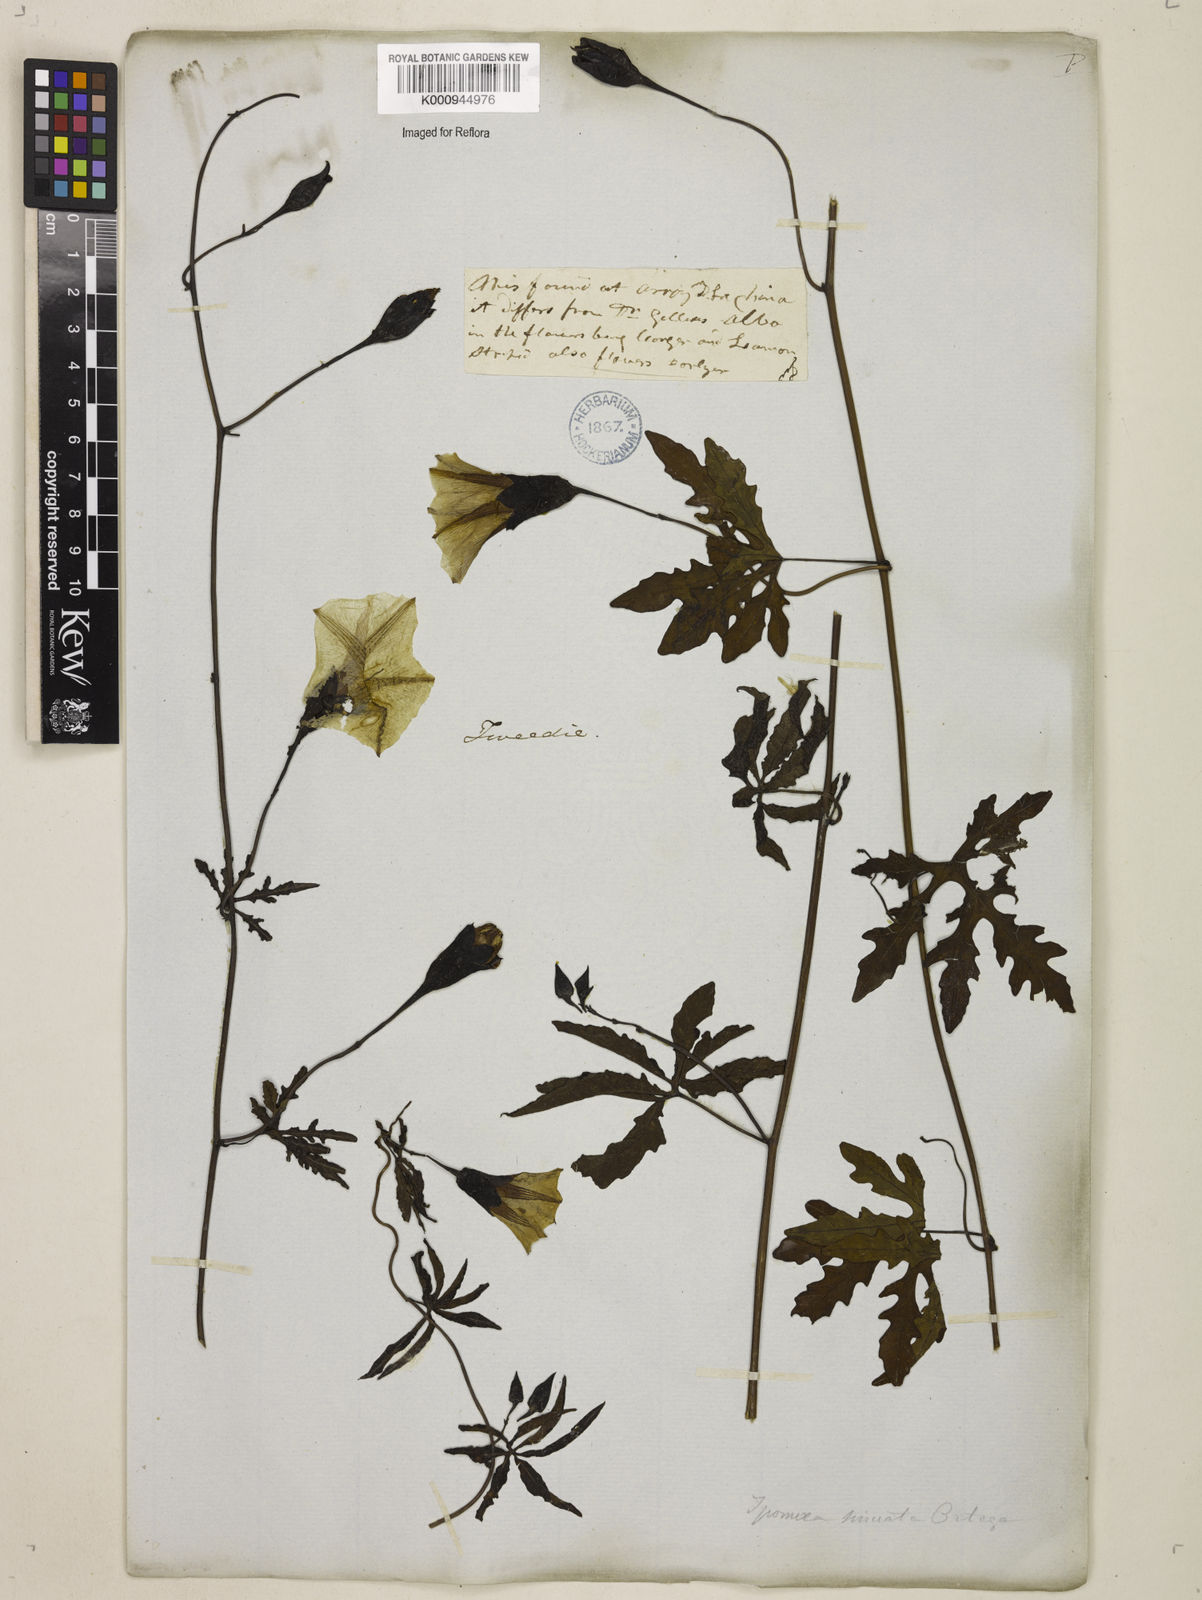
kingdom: Plantae
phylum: Tracheophyta
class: Magnoliopsida
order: Solanales
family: Convolvulaceae
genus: Distimake
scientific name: Distimake dissectus
